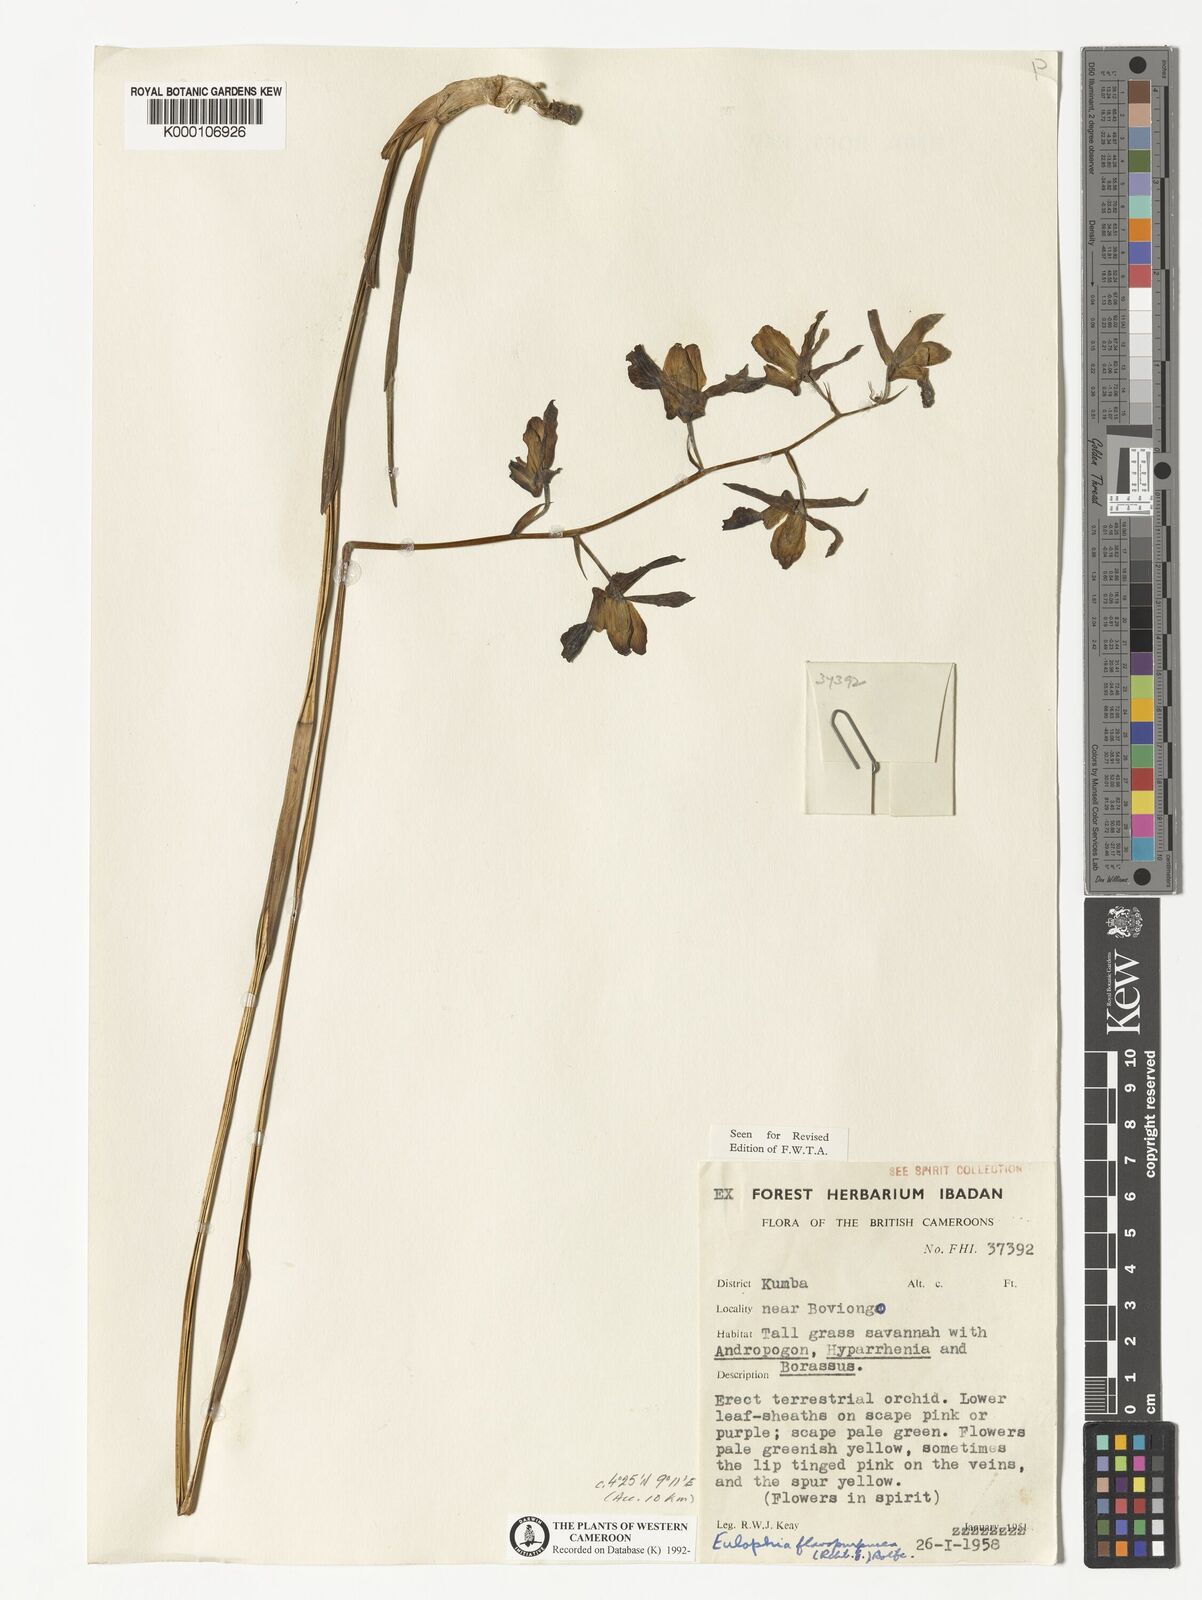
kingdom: Plantae
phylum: Tracheophyta
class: Liliopsida
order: Asparagales
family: Orchidaceae
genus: Eulophia
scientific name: Eulophia flavopurpurea
